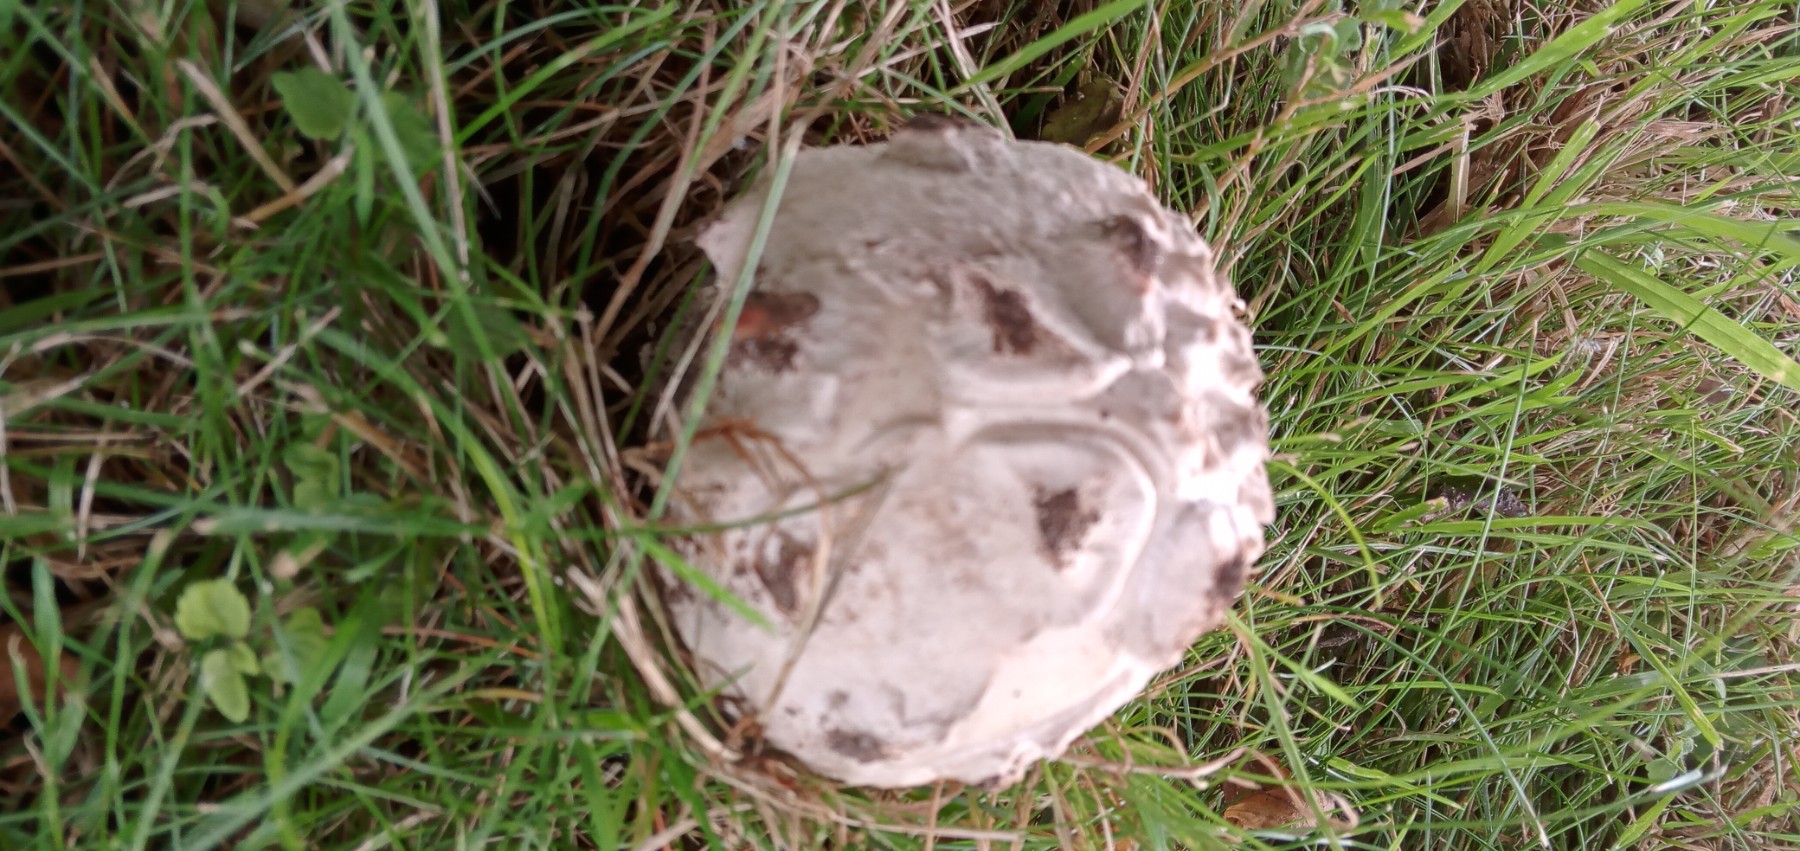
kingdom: Fungi
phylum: Basidiomycota
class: Agaricomycetes
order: Agaricales
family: Amanitaceae
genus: Amanita
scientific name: Amanita
